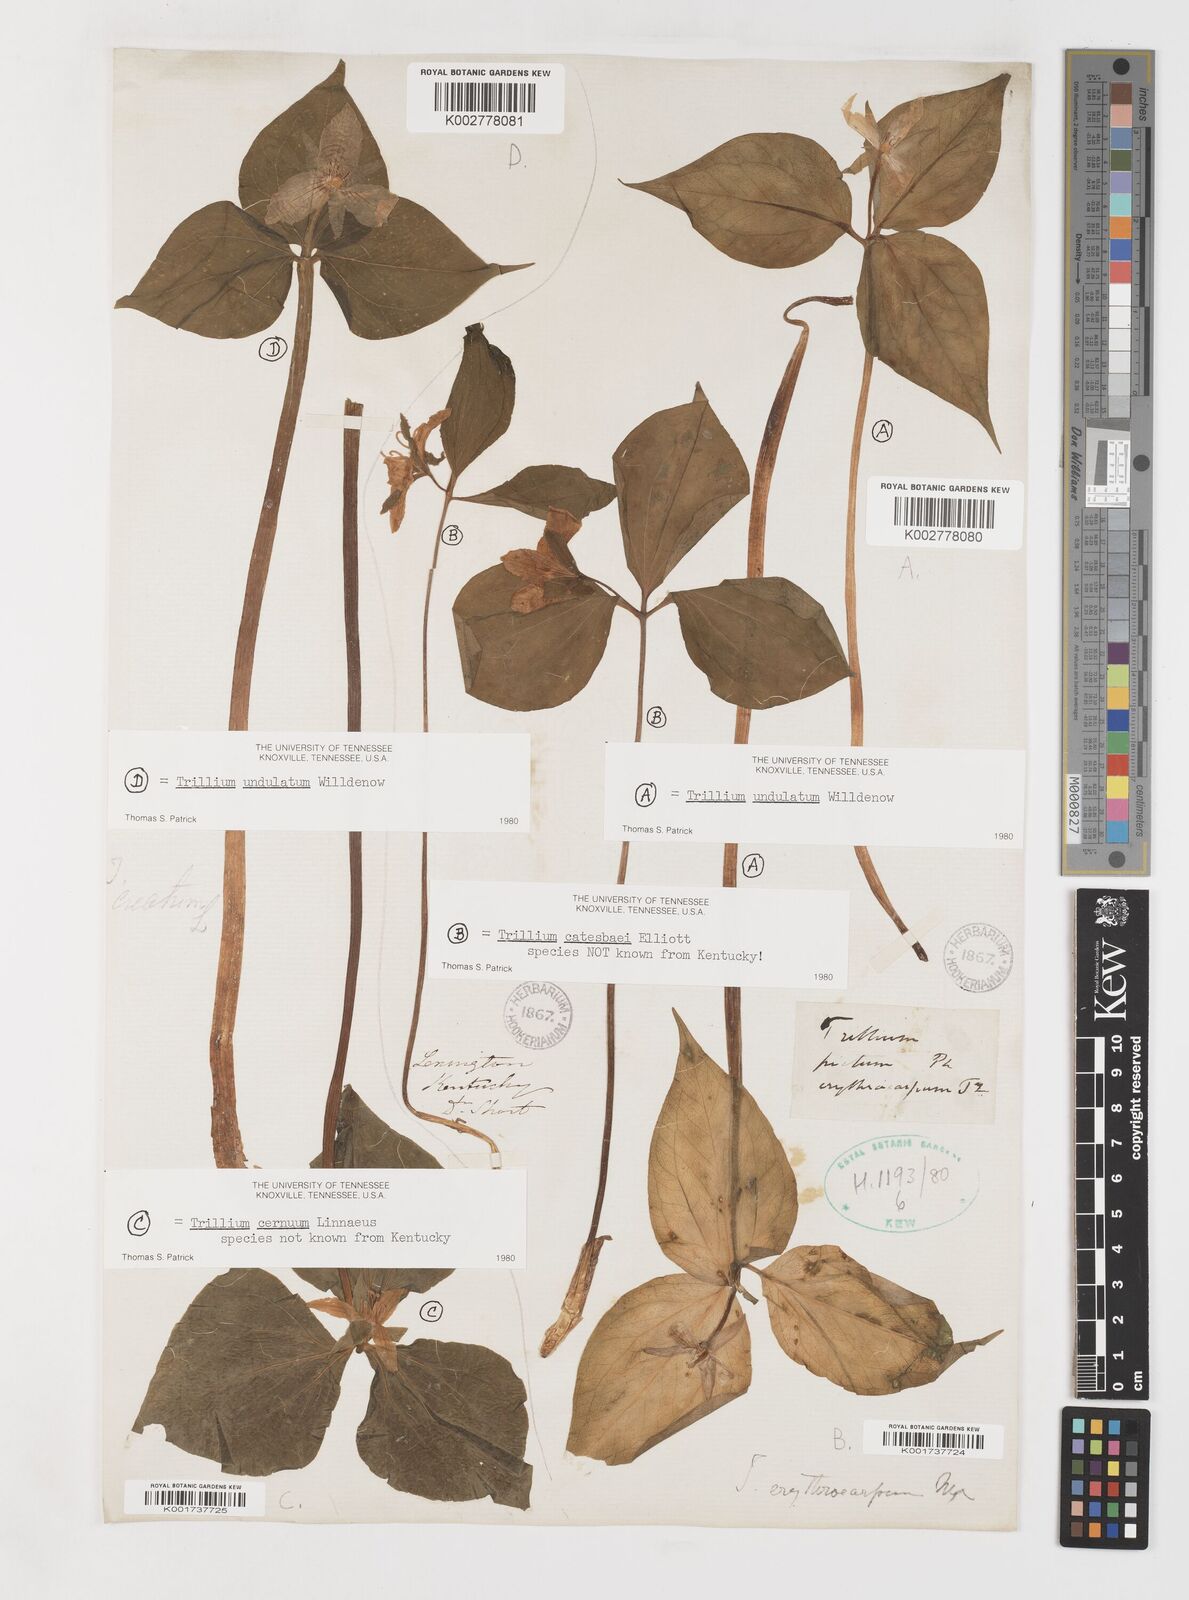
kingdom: Plantae
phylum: Tracheophyta
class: Liliopsida
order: Liliales
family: Melanthiaceae
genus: Trillium
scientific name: Trillium undulatum
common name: Paint trillium
